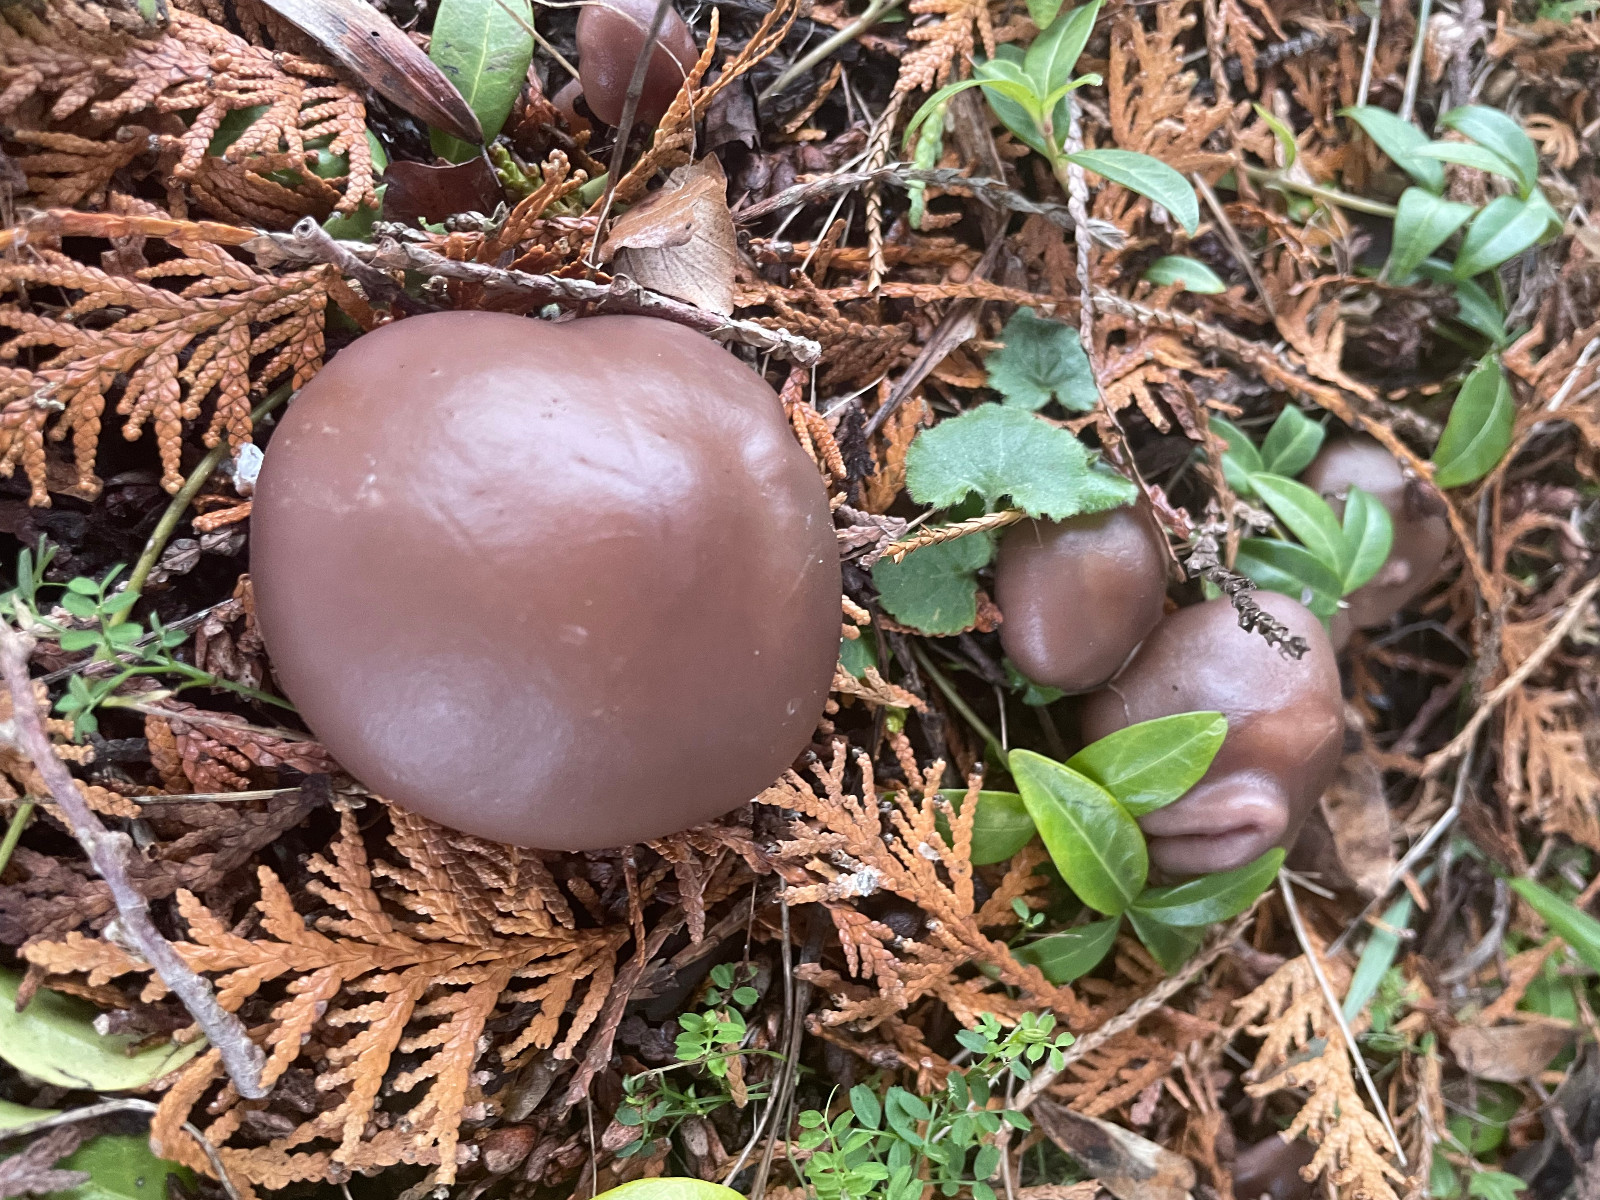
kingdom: Fungi
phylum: Basidiomycota
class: Agaricomycetes
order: Agaricales
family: Tricholomataceae
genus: Lepista
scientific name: Lepista
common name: hekseringshat
